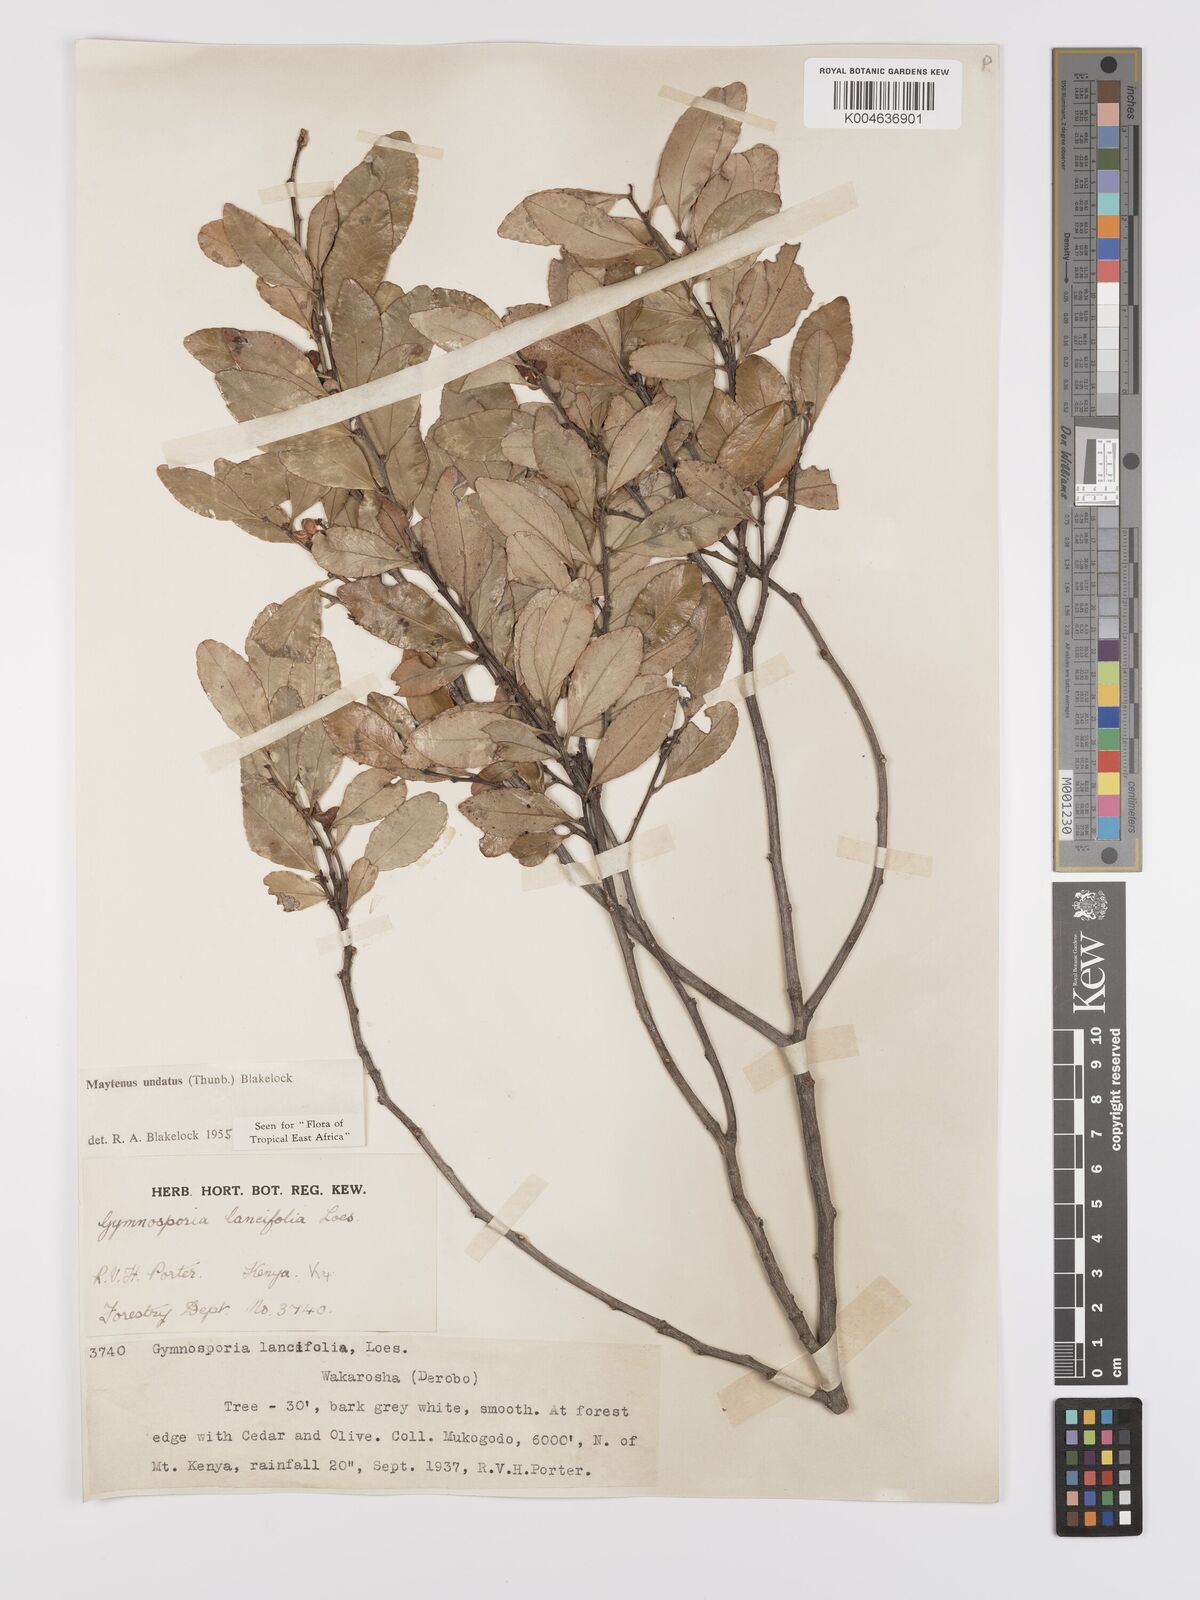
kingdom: Plantae
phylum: Tracheophyta
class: Magnoliopsida
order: Celastrales
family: Celastraceae
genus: Gymnosporia
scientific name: Gymnosporia undata
